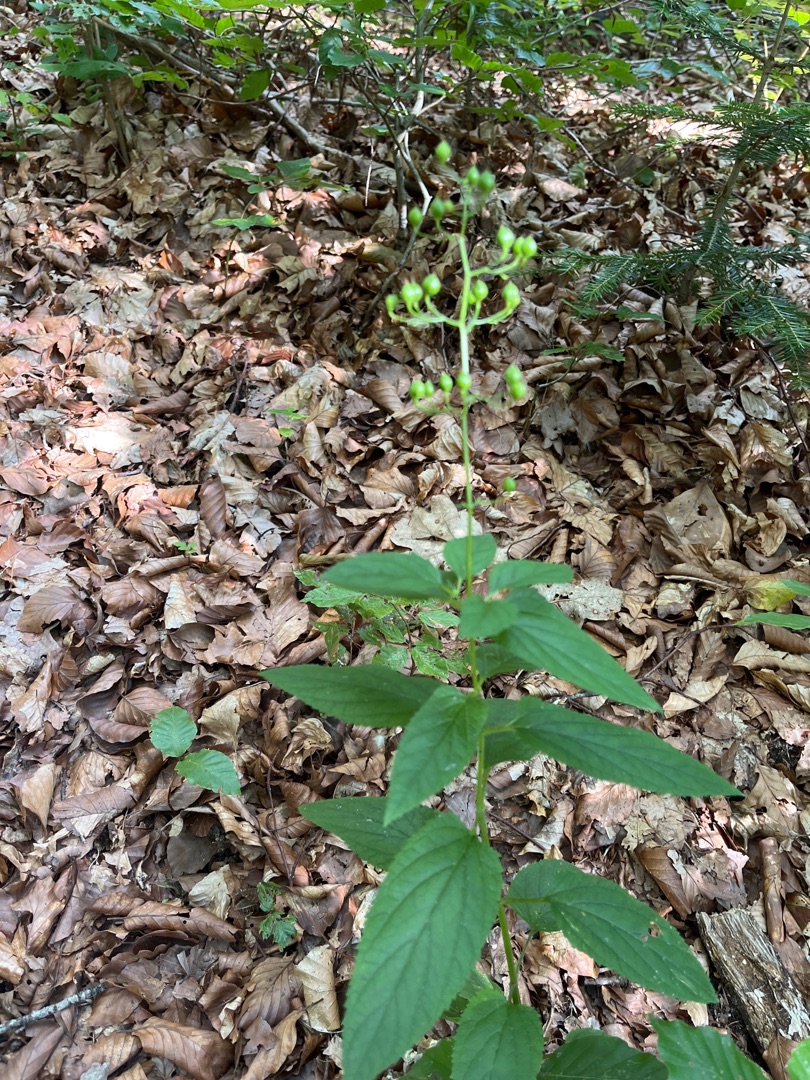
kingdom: Plantae
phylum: Tracheophyta
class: Magnoliopsida
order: Lamiales
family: Scrophulariaceae
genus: Scrophularia
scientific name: Scrophularia nodosa
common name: Knoldet brunrod
